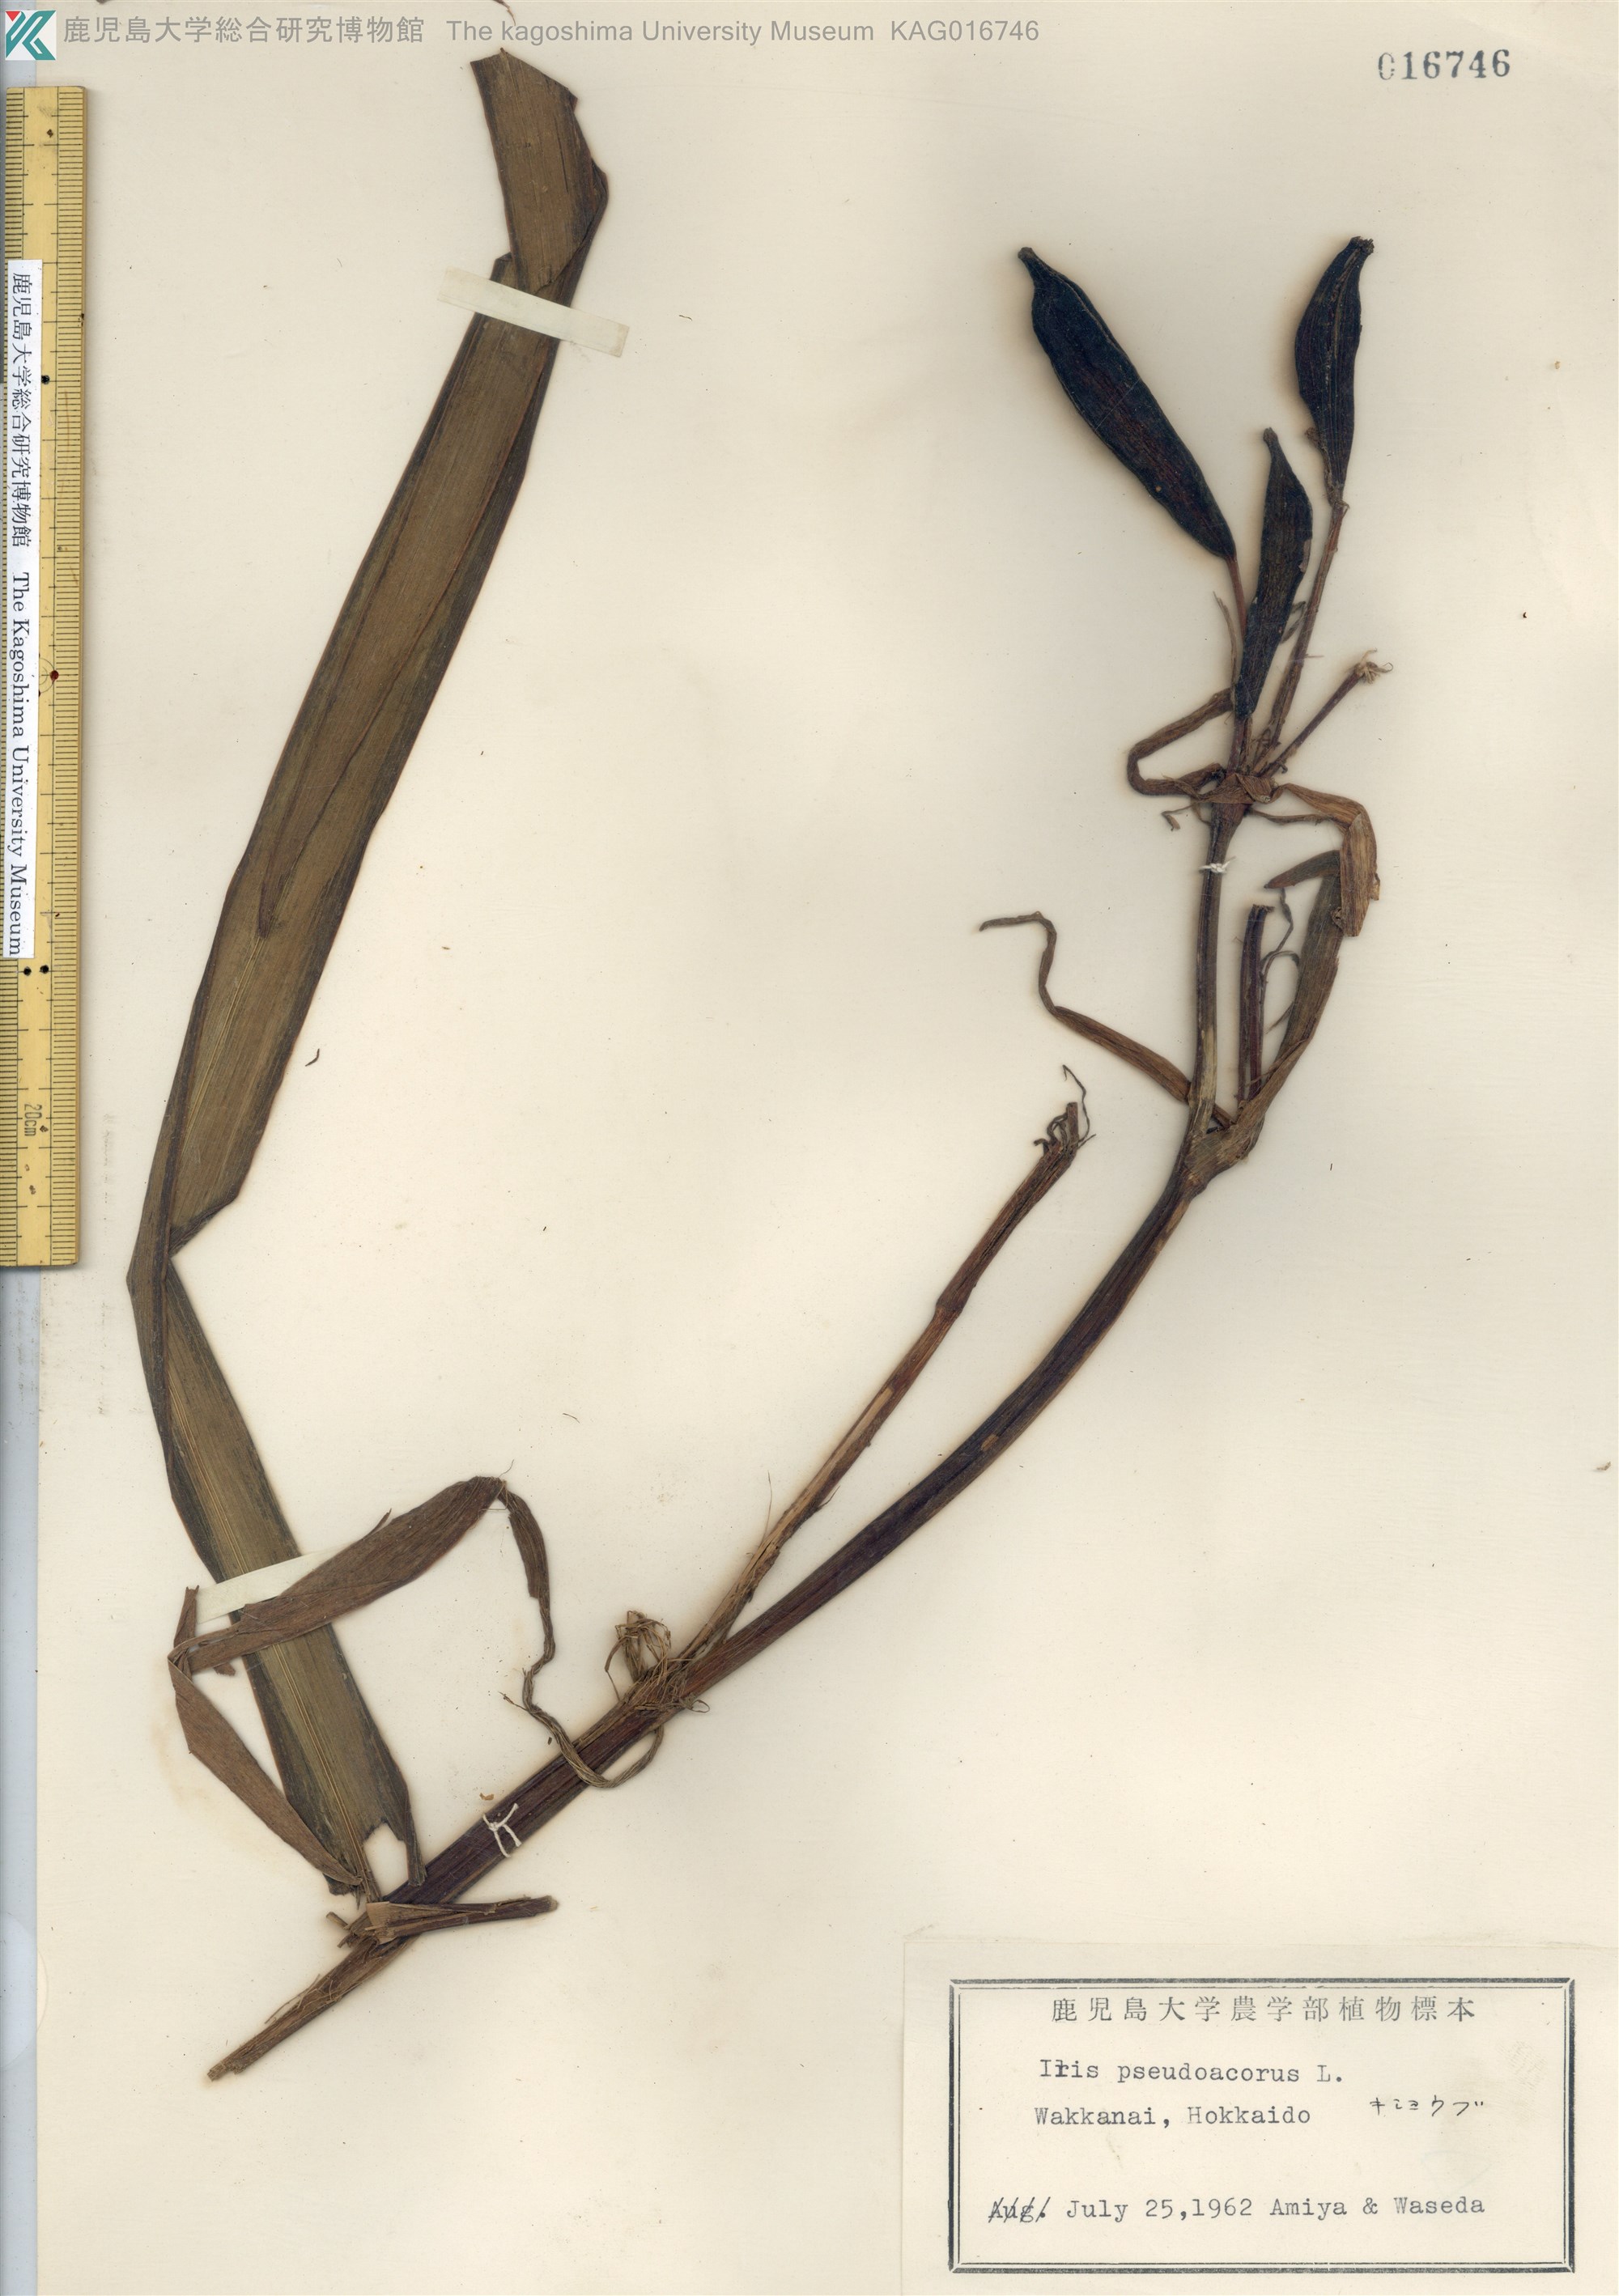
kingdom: Plantae
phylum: Tracheophyta
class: Liliopsida
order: Asparagales
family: Iridaceae
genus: Iris
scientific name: Iris pseudacorus
